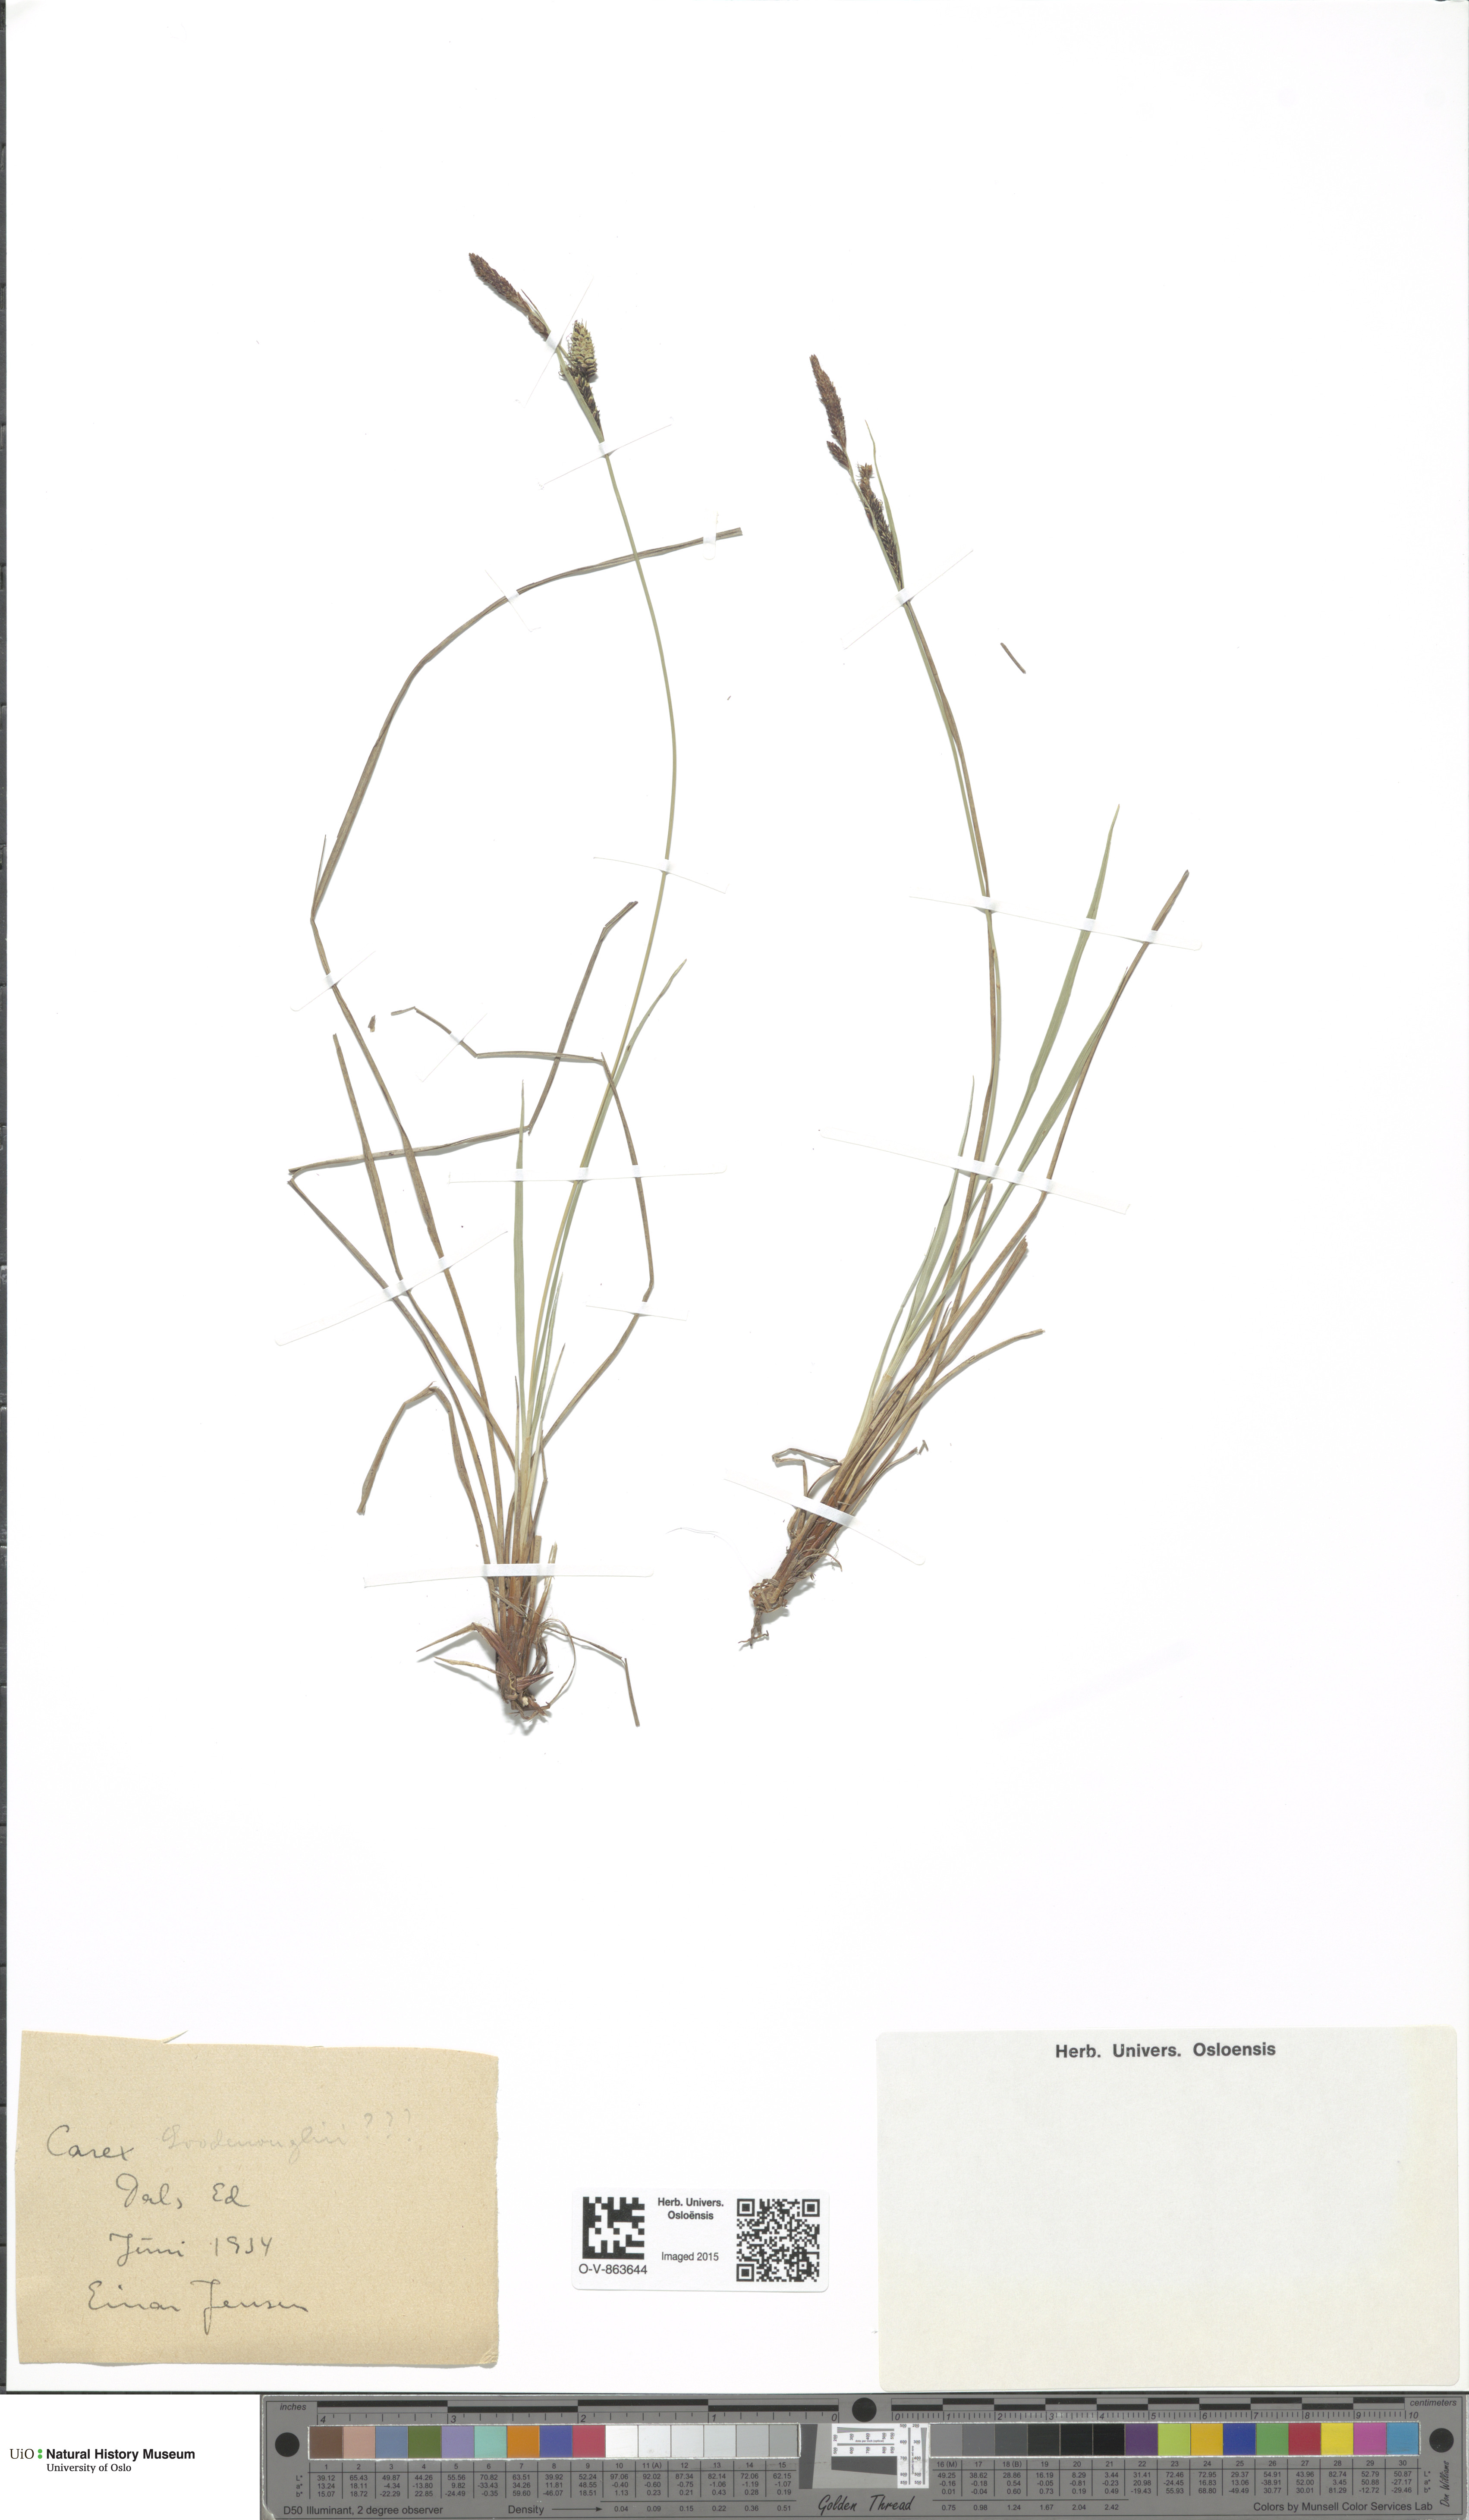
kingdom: Plantae
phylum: Tracheophyta
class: Liliopsida
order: Poales
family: Cyperaceae
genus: Carex
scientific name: Carex nigra
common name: Common sedge
